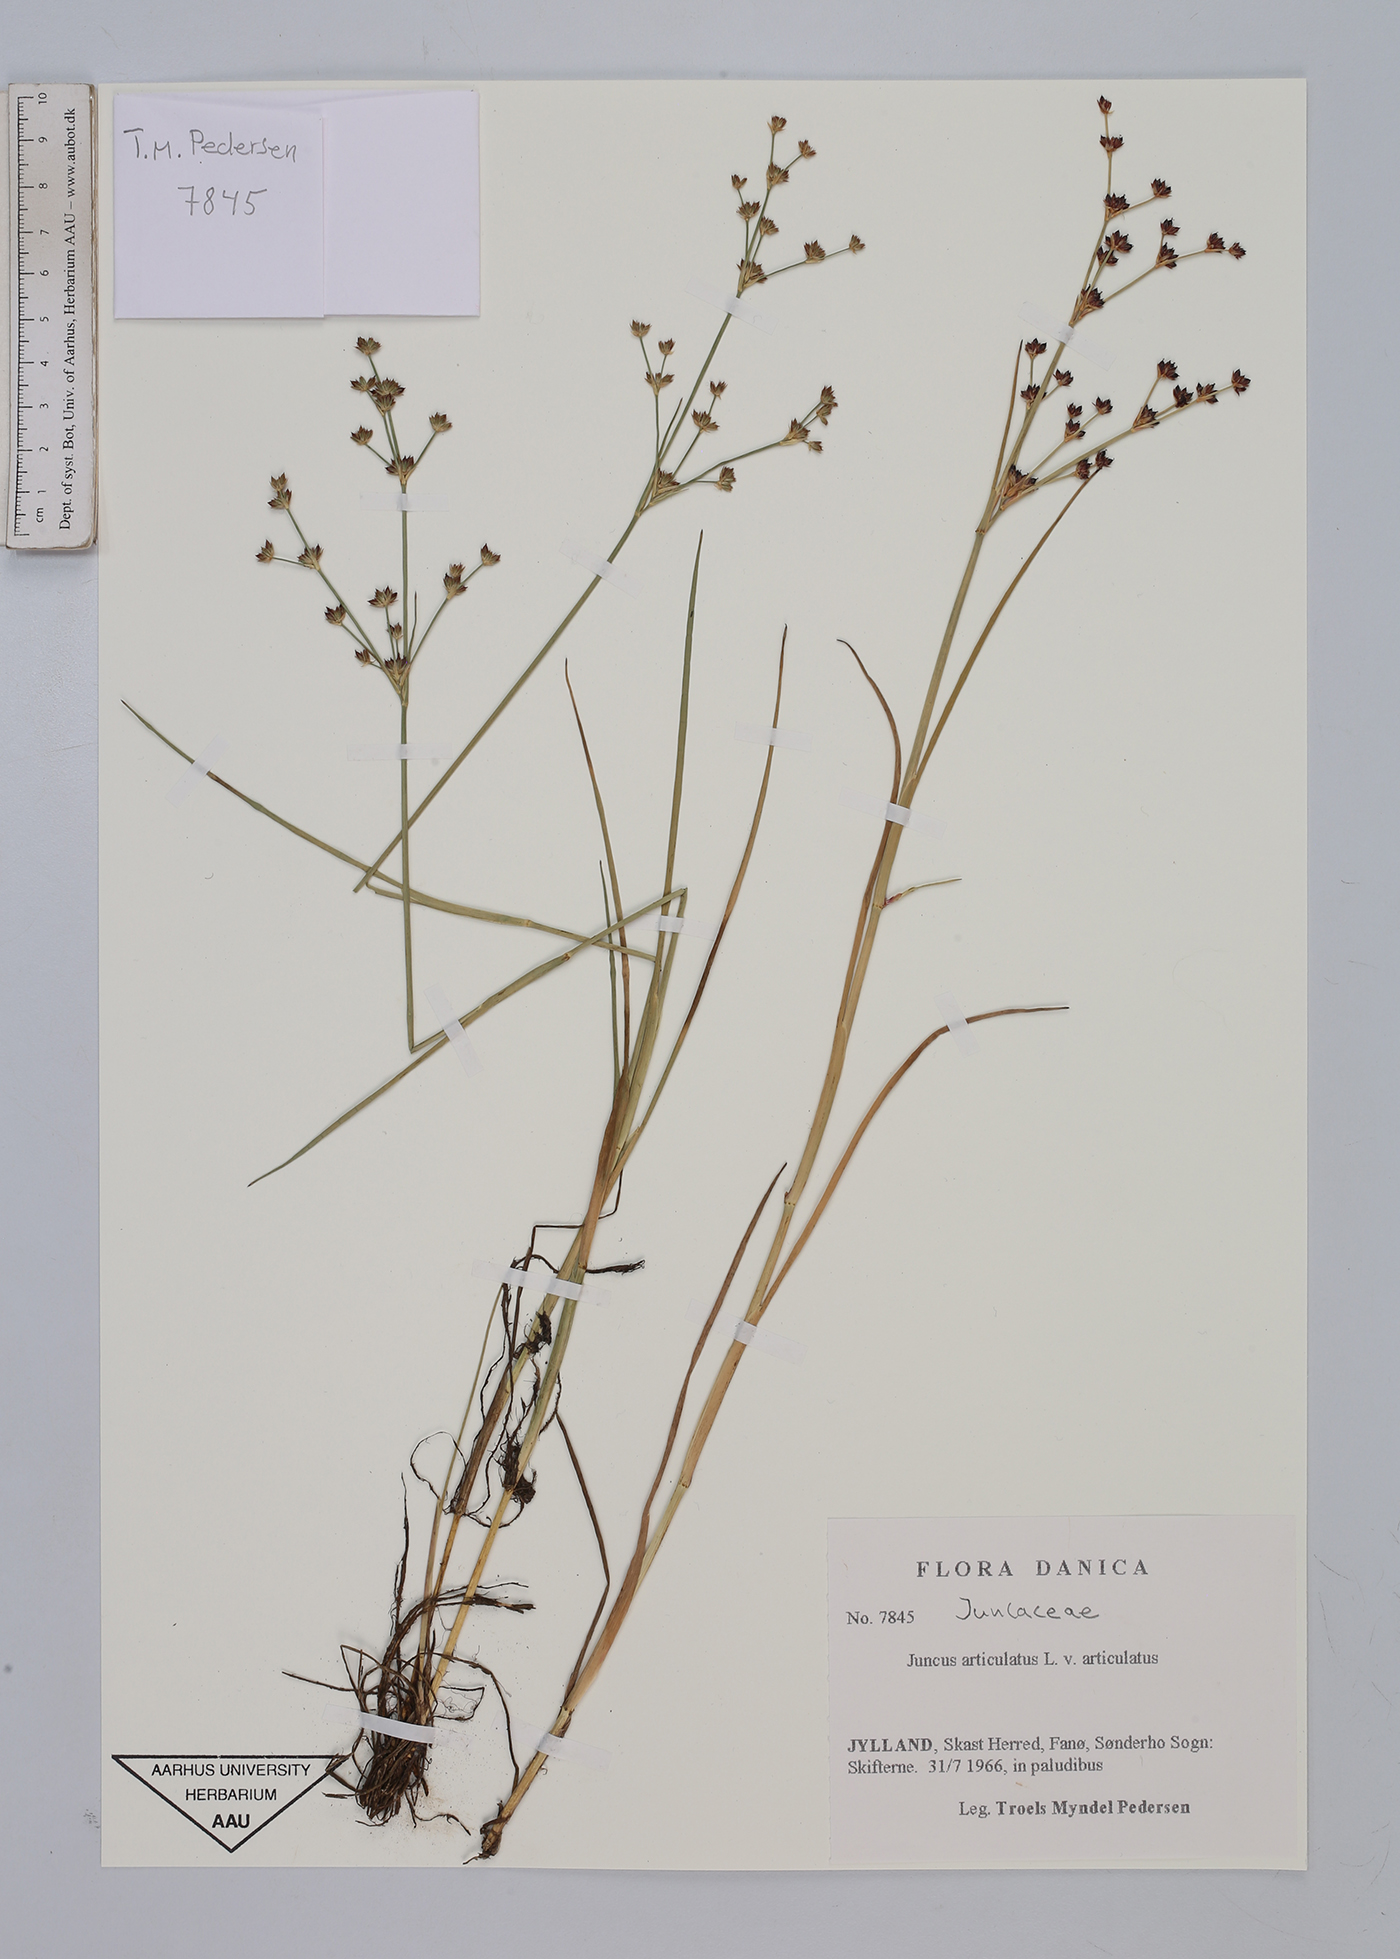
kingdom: Plantae
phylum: Tracheophyta
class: Liliopsida
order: Poales
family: Juncaceae
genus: Juncus
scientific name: Juncus articulatus
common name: Jointed rush
